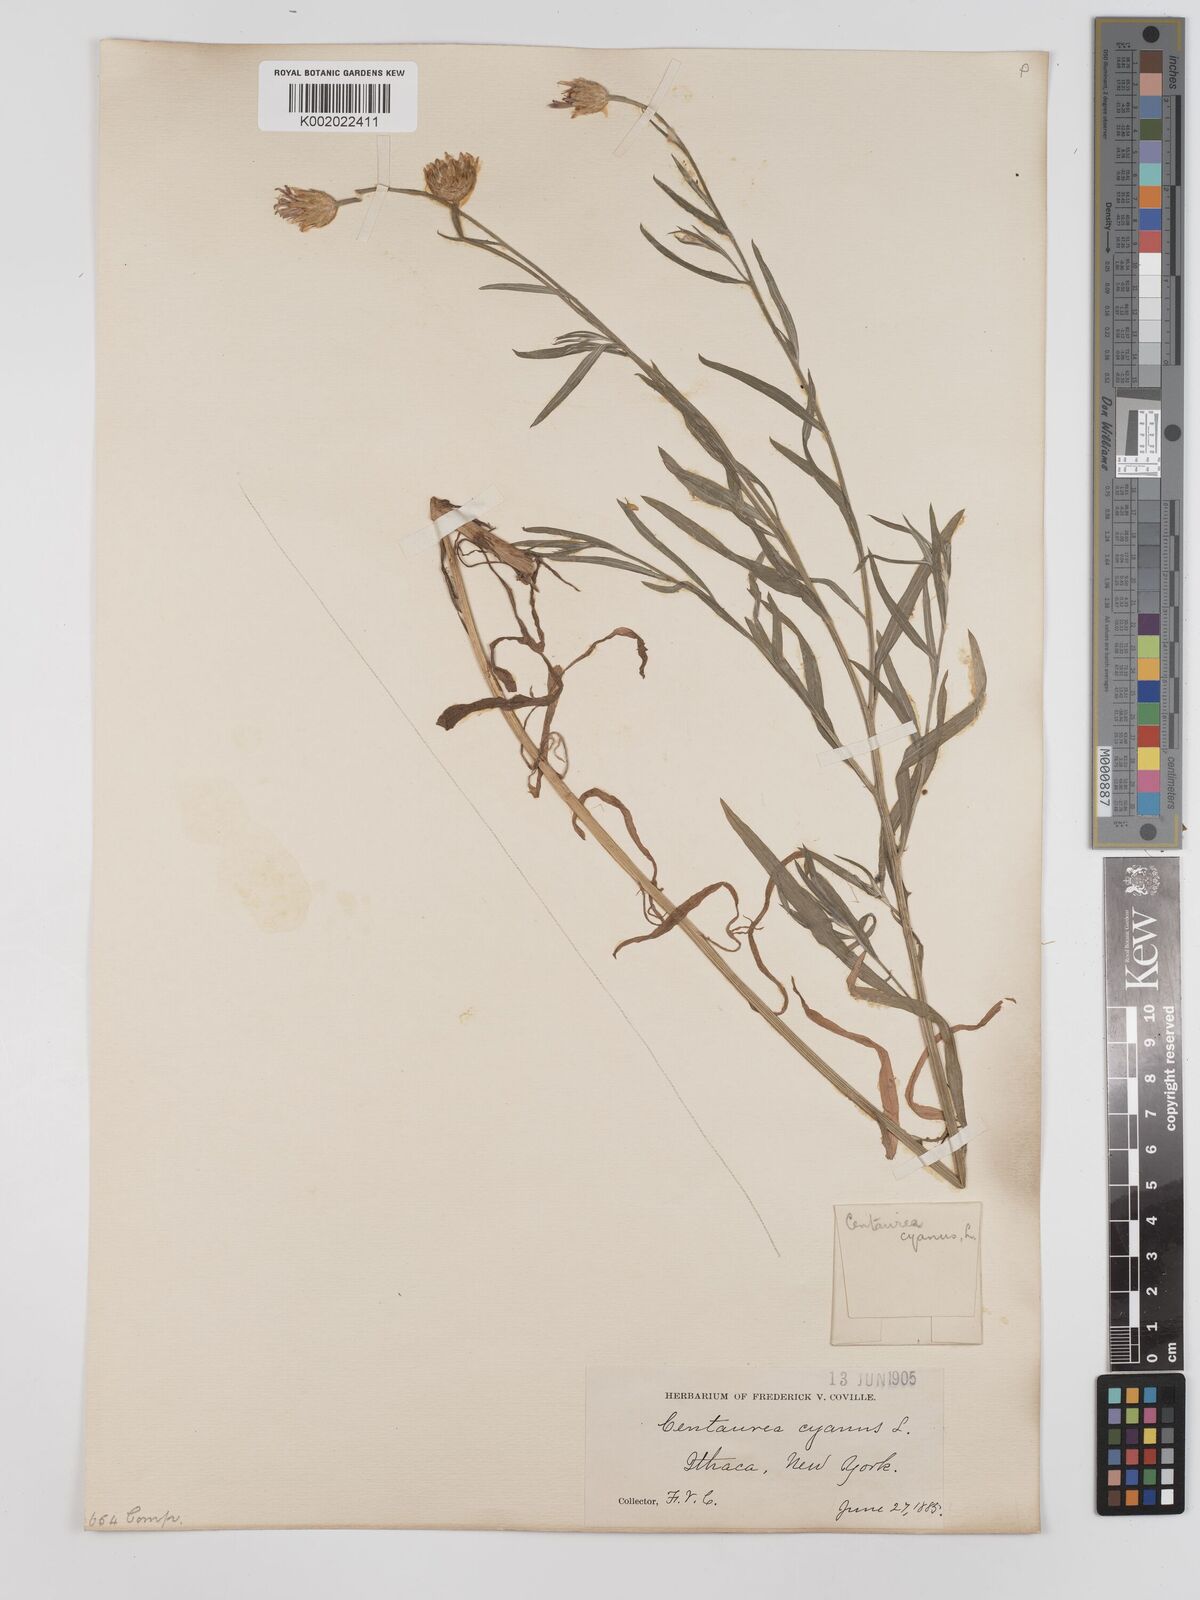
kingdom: Plantae
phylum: Tracheophyta
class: Magnoliopsida
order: Asterales
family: Asteraceae
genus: Centaurea
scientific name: Centaurea cyanus
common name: Cornflower
